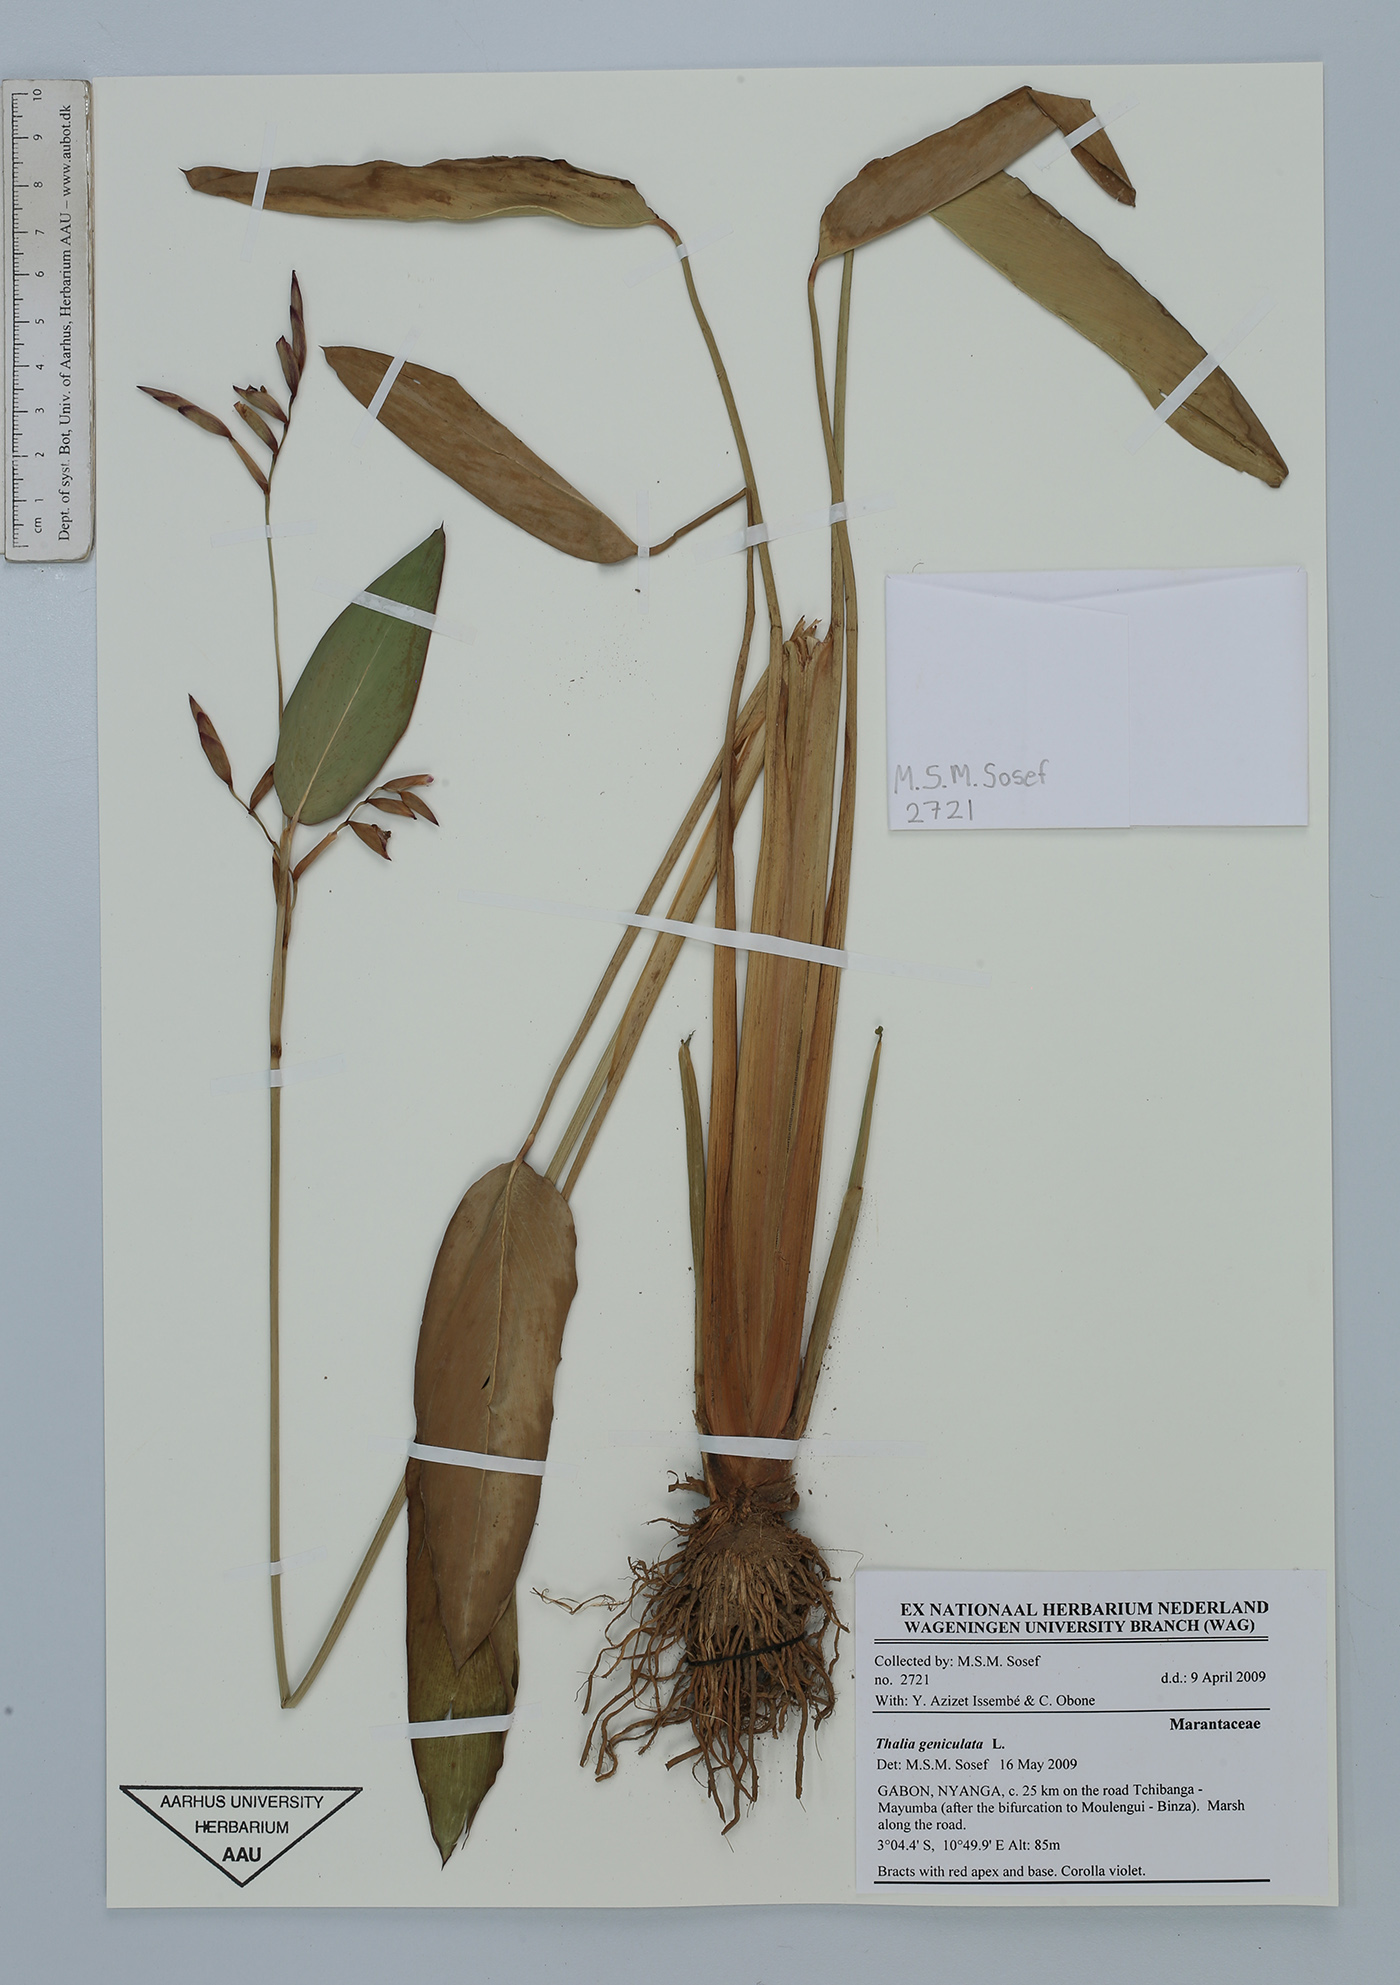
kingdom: Plantae
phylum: Tracheophyta
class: Liliopsida
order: Zingiberales
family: Marantaceae
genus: Thalia
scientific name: Thalia geniculata
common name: Arrowroot
